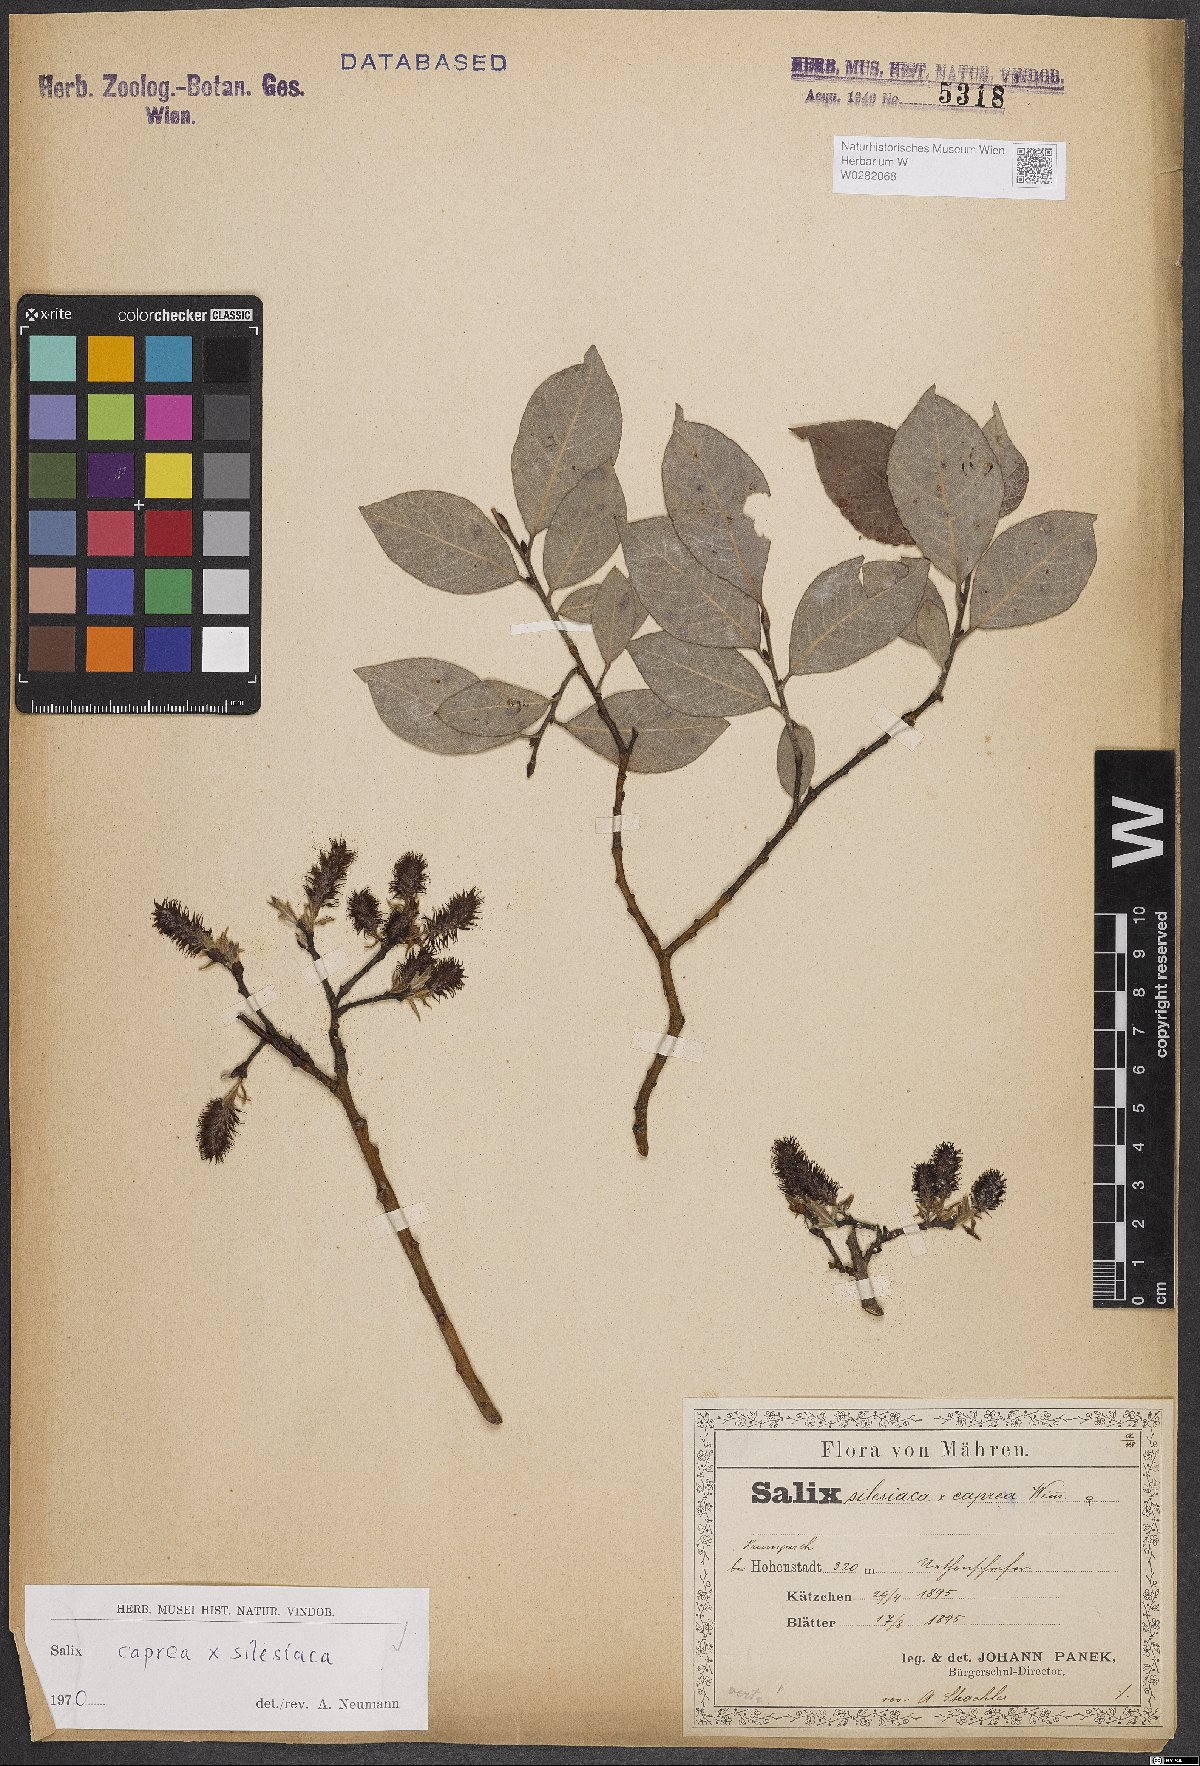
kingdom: Plantae
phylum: Tracheophyta
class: Magnoliopsida
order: Malpighiales
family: Salicaceae
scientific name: Salicaceae
